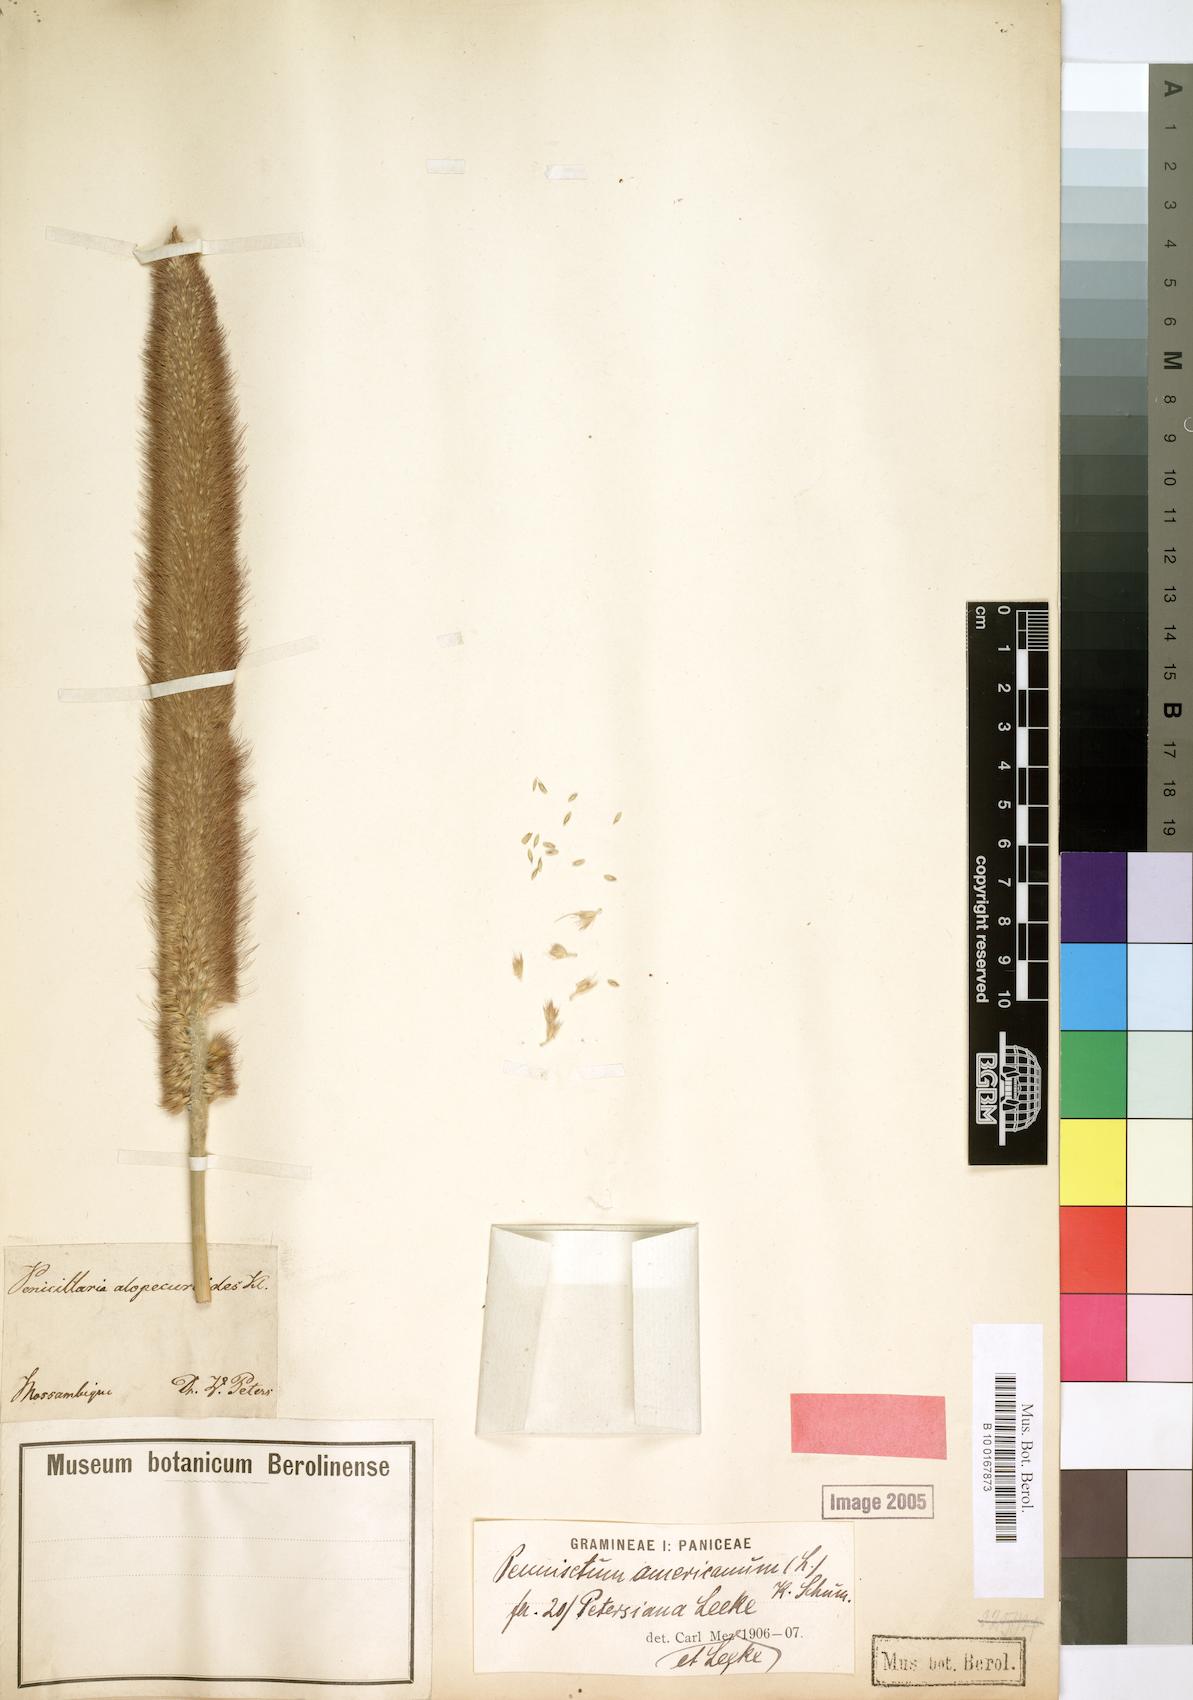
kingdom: Plantae
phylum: Tracheophyta
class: Liliopsida
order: Poales
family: Poaceae
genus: Cenchrus
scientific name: Cenchrus americanus
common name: Pearl millet
